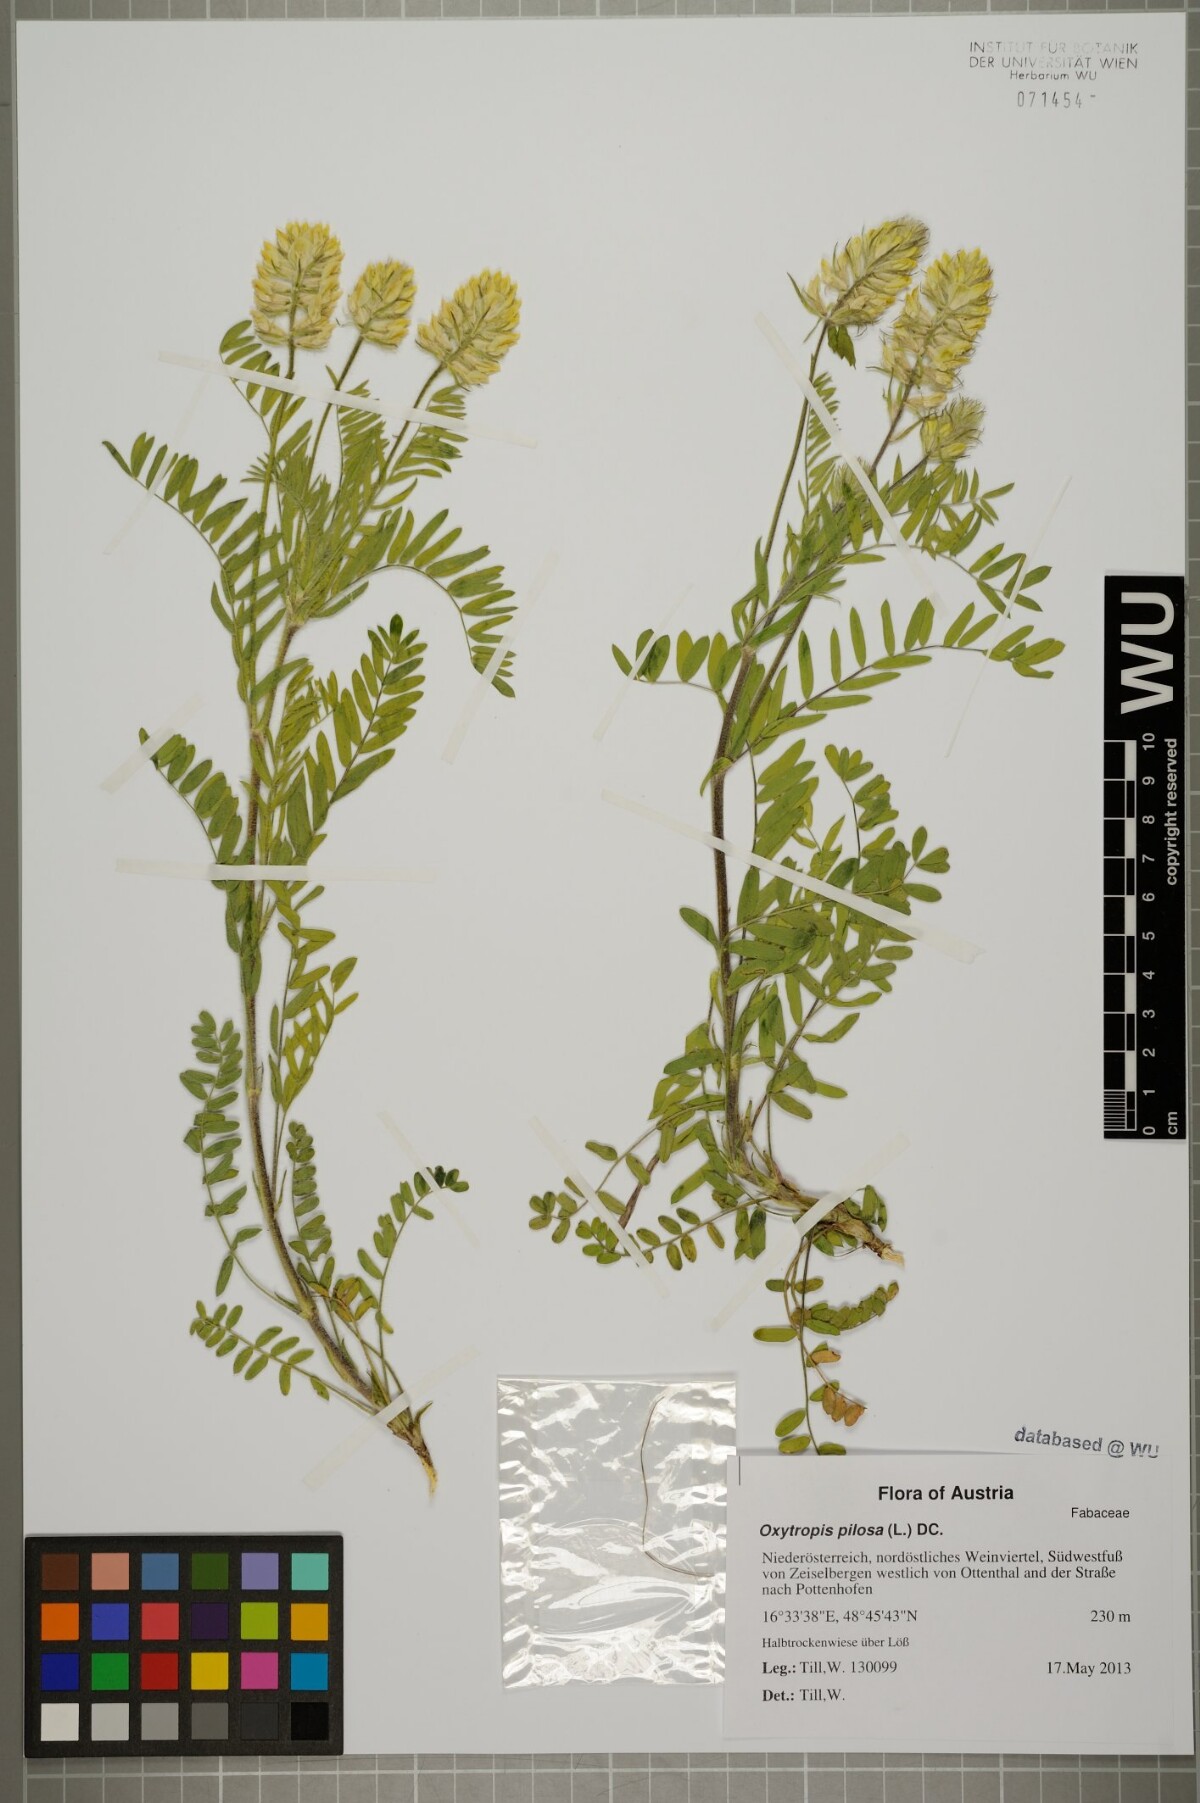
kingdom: Plantae
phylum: Tracheophyta
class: Magnoliopsida
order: Fabales
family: Fabaceae
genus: Oxytropis
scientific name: Oxytropis pilosa
